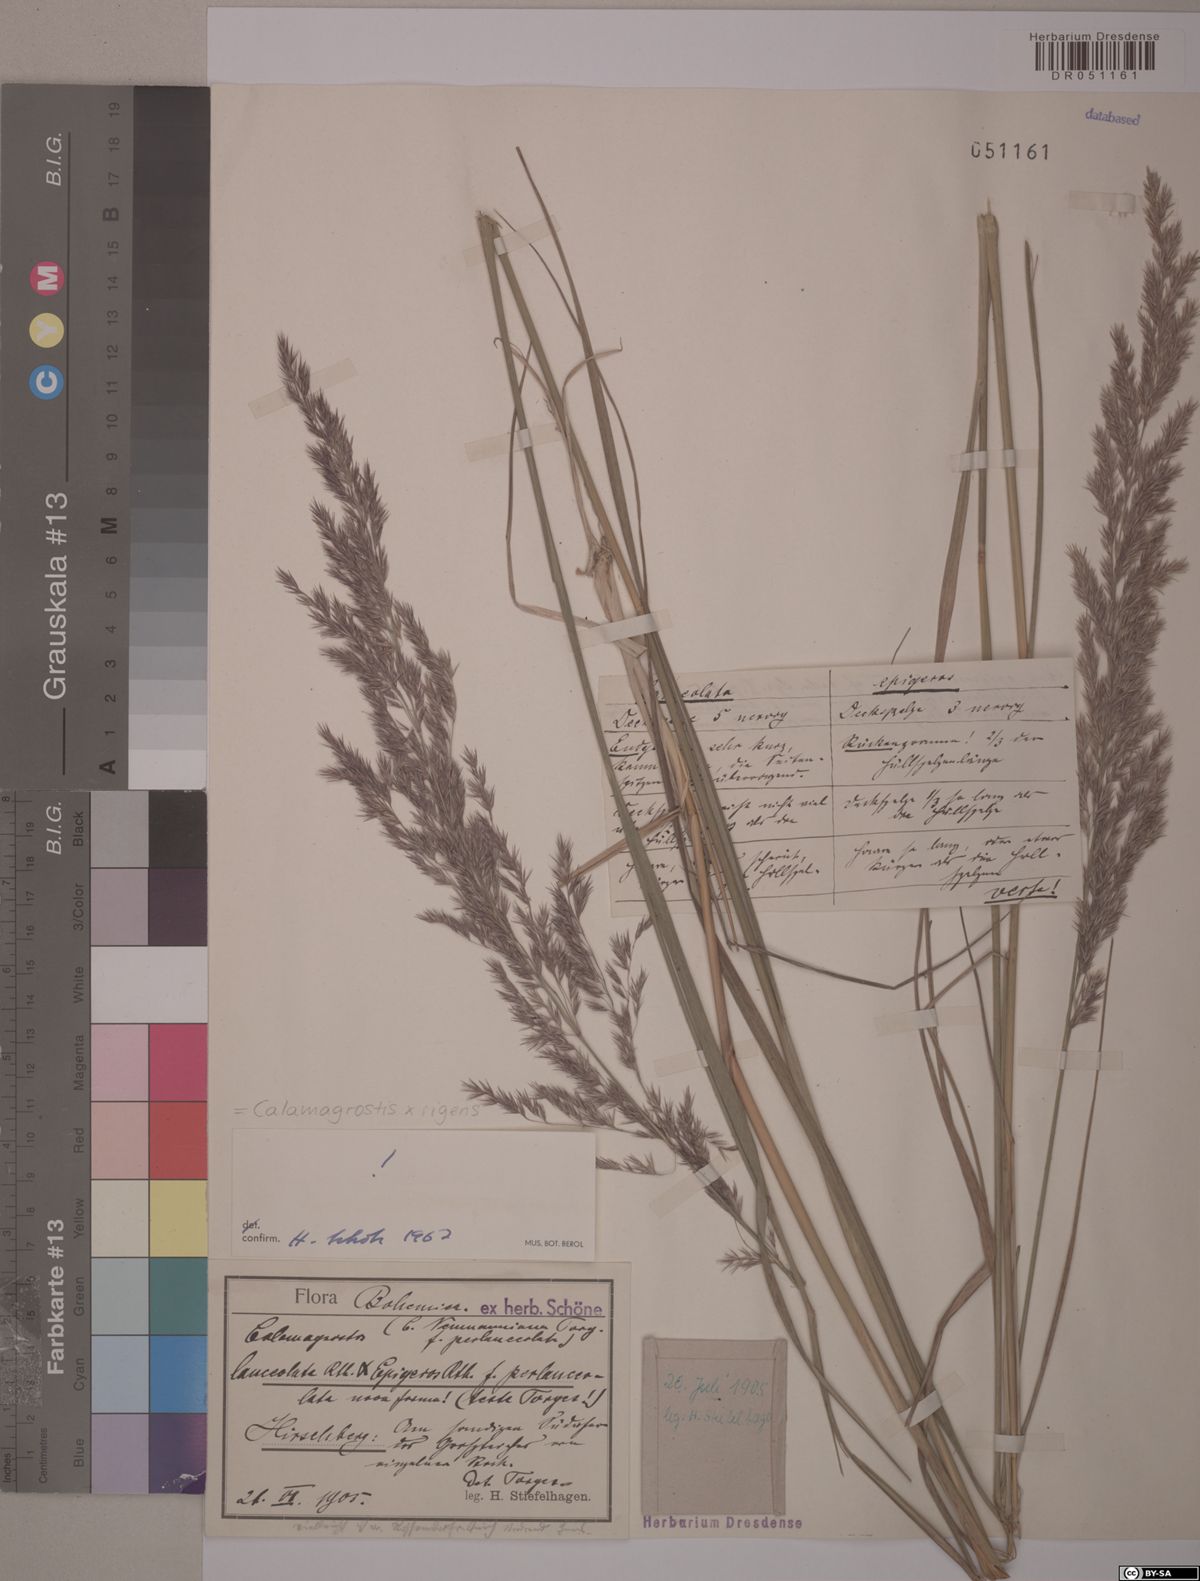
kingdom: Plantae
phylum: Tracheophyta
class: Liliopsida
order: Poales
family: Poaceae
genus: Calamagrostis
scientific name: Calamagrostis rigens
